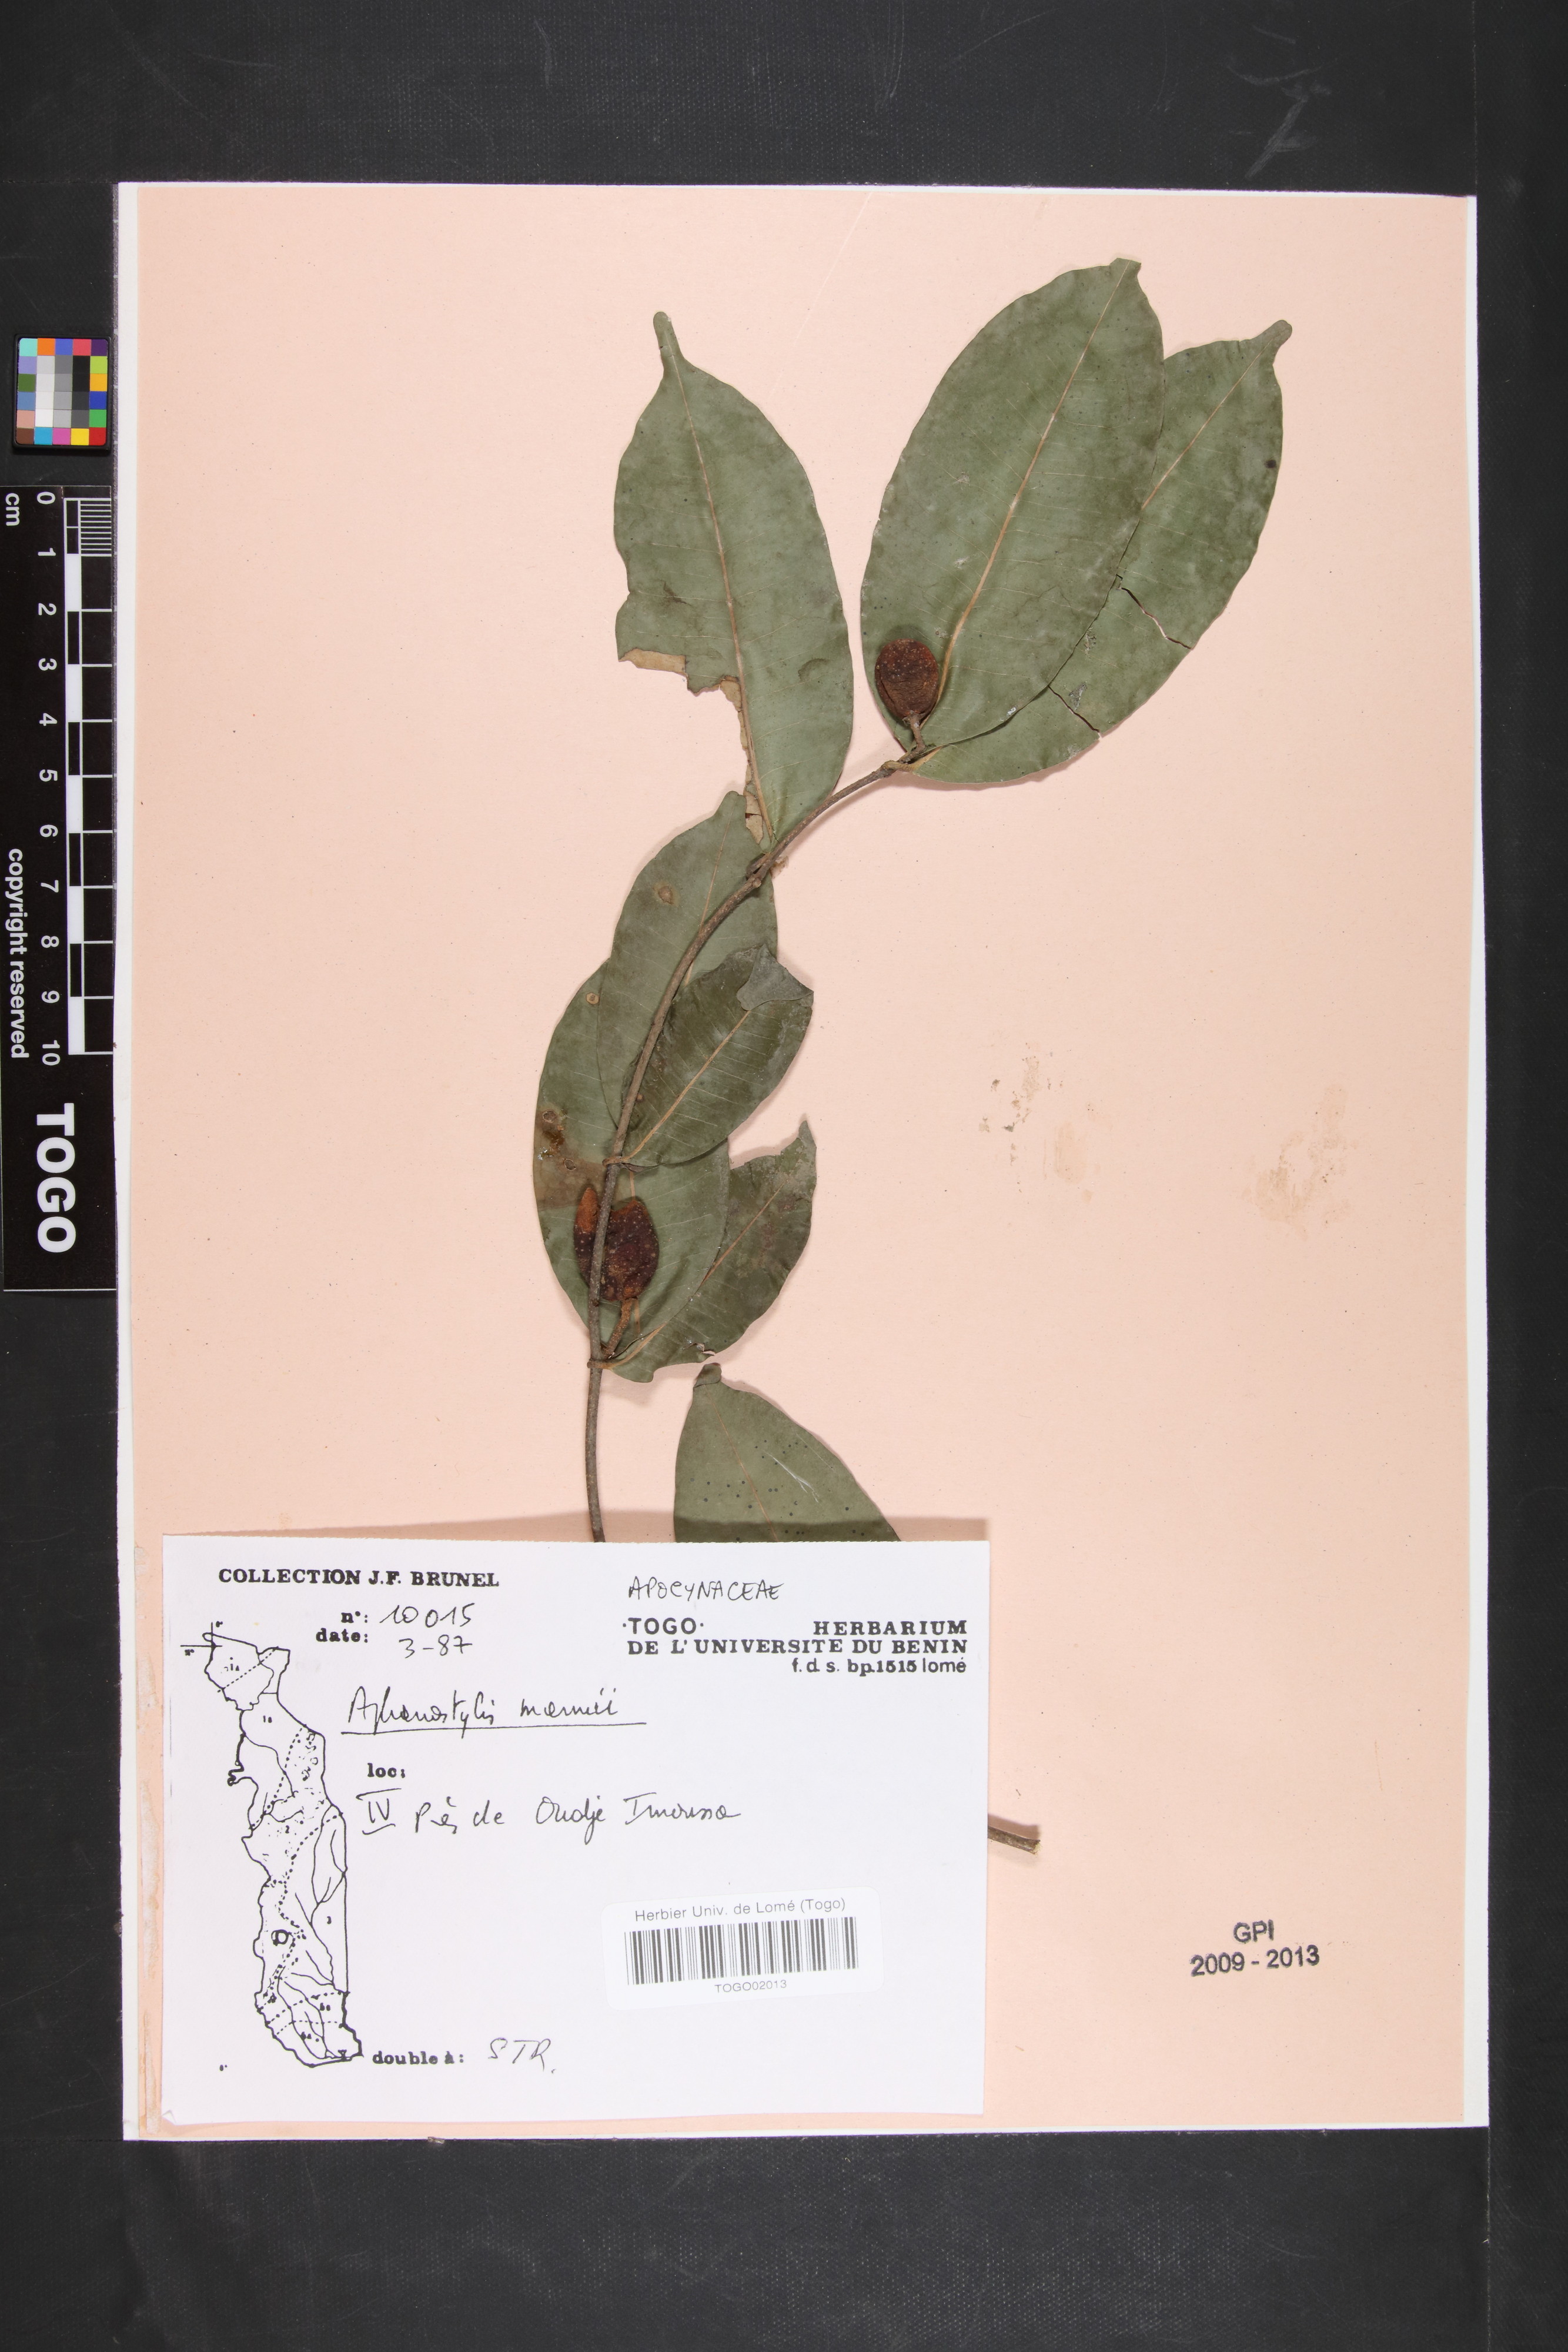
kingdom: Plantae
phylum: Tracheophyta
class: Magnoliopsida
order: Gentianales
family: Apocynaceae
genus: Landolphia
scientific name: Landolphia incerta
